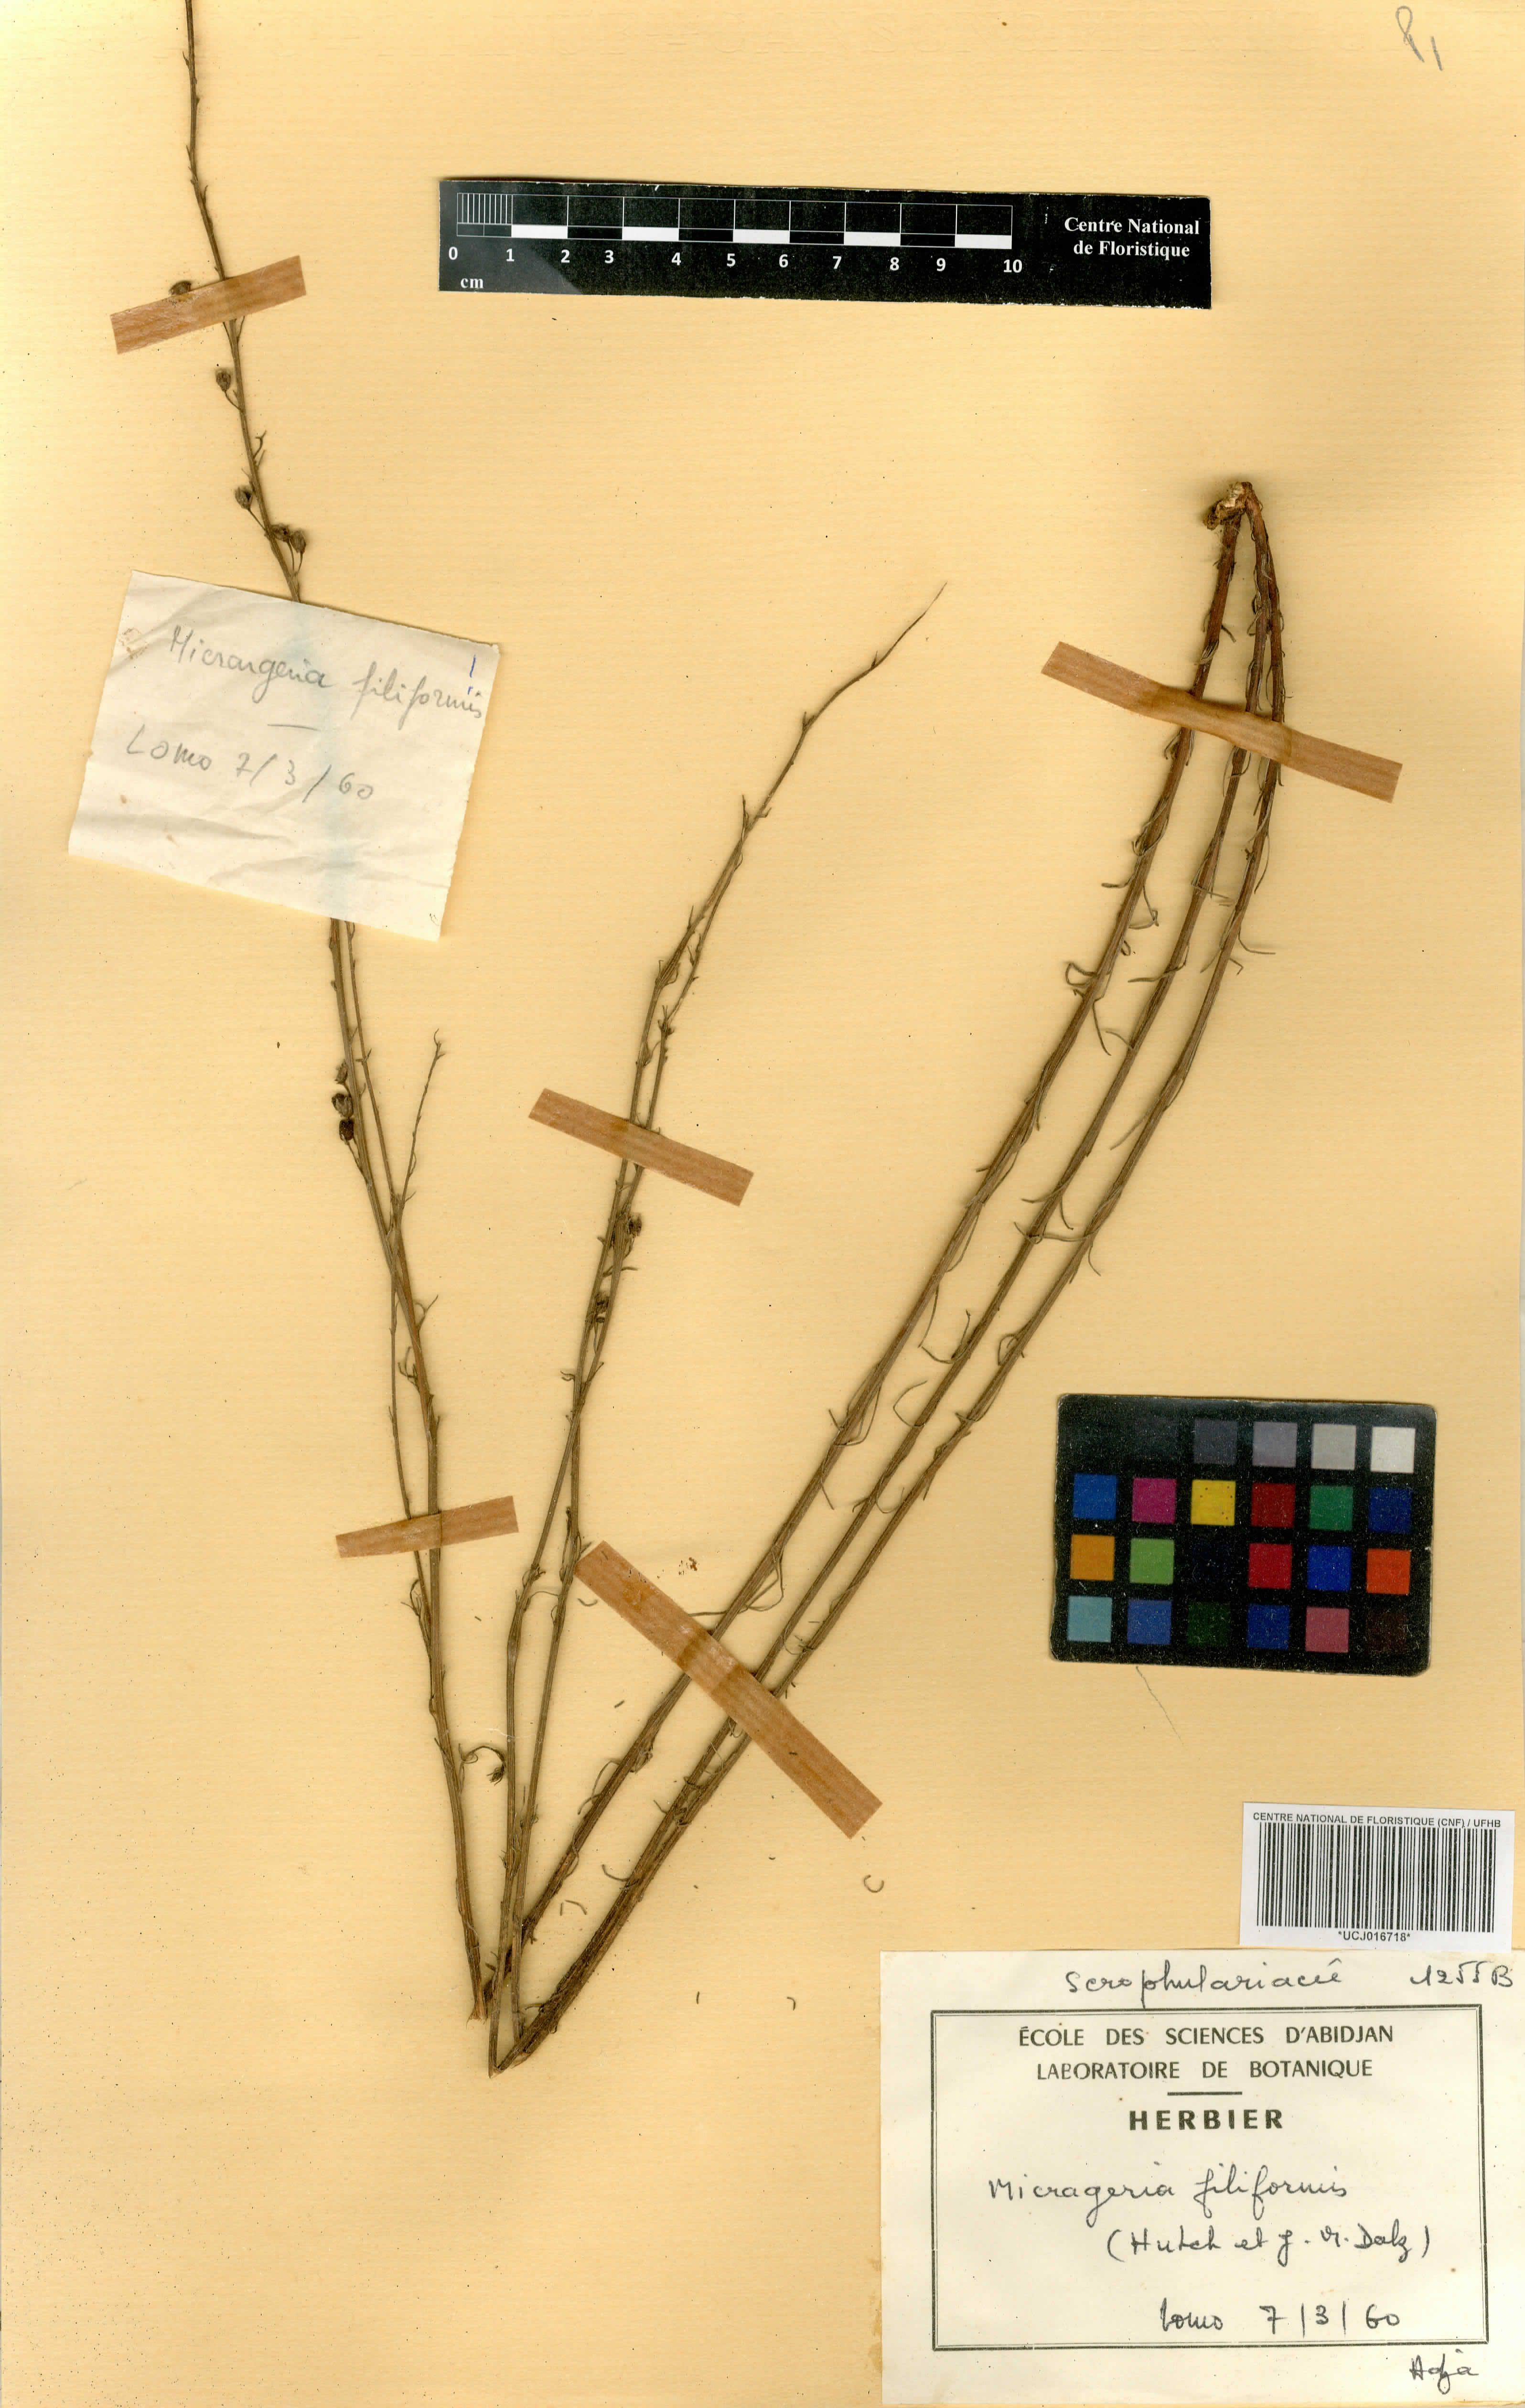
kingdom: Plantae
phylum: Tracheophyta
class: Magnoliopsida
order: Lamiales
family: Orobanchaceae
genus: Micrargeria
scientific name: Micrargeria filiformis
